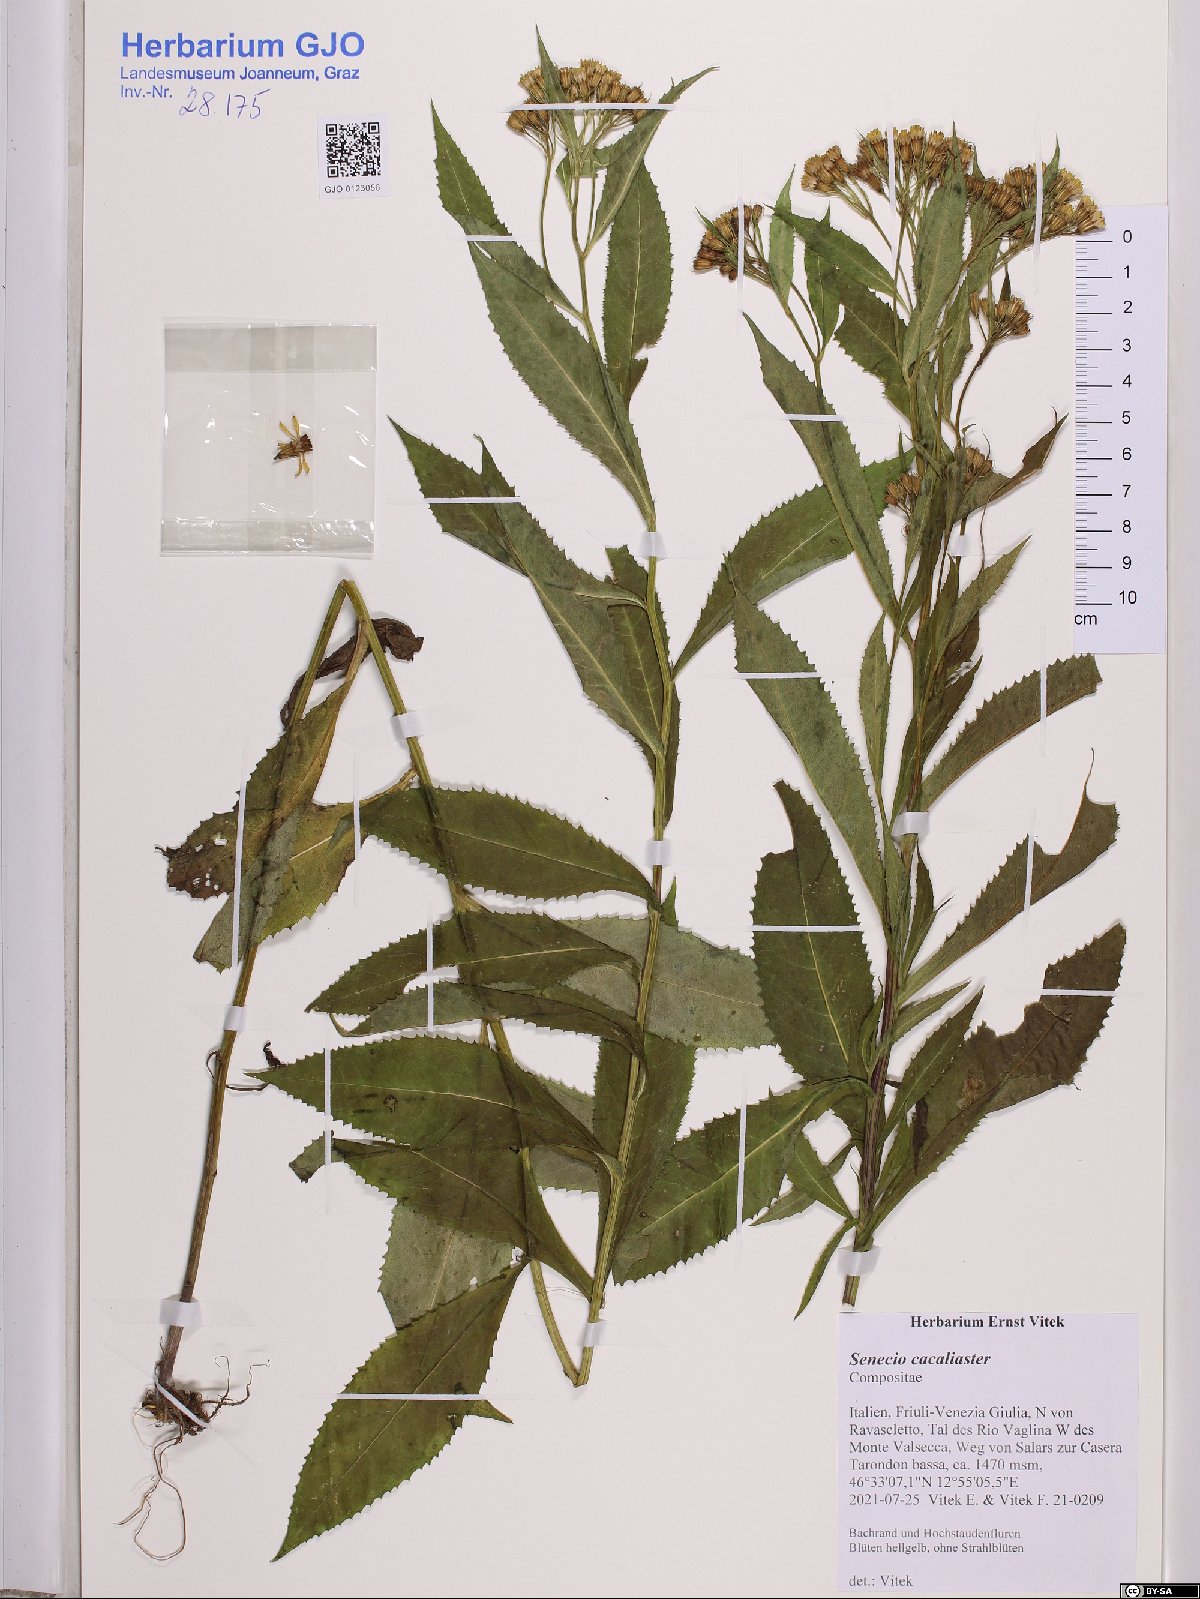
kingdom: Plantae
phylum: Tracheophyta
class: Magnoliopsida
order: Asterales
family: Asteraceae
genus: Senecio
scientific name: Senecio cacaliaster
